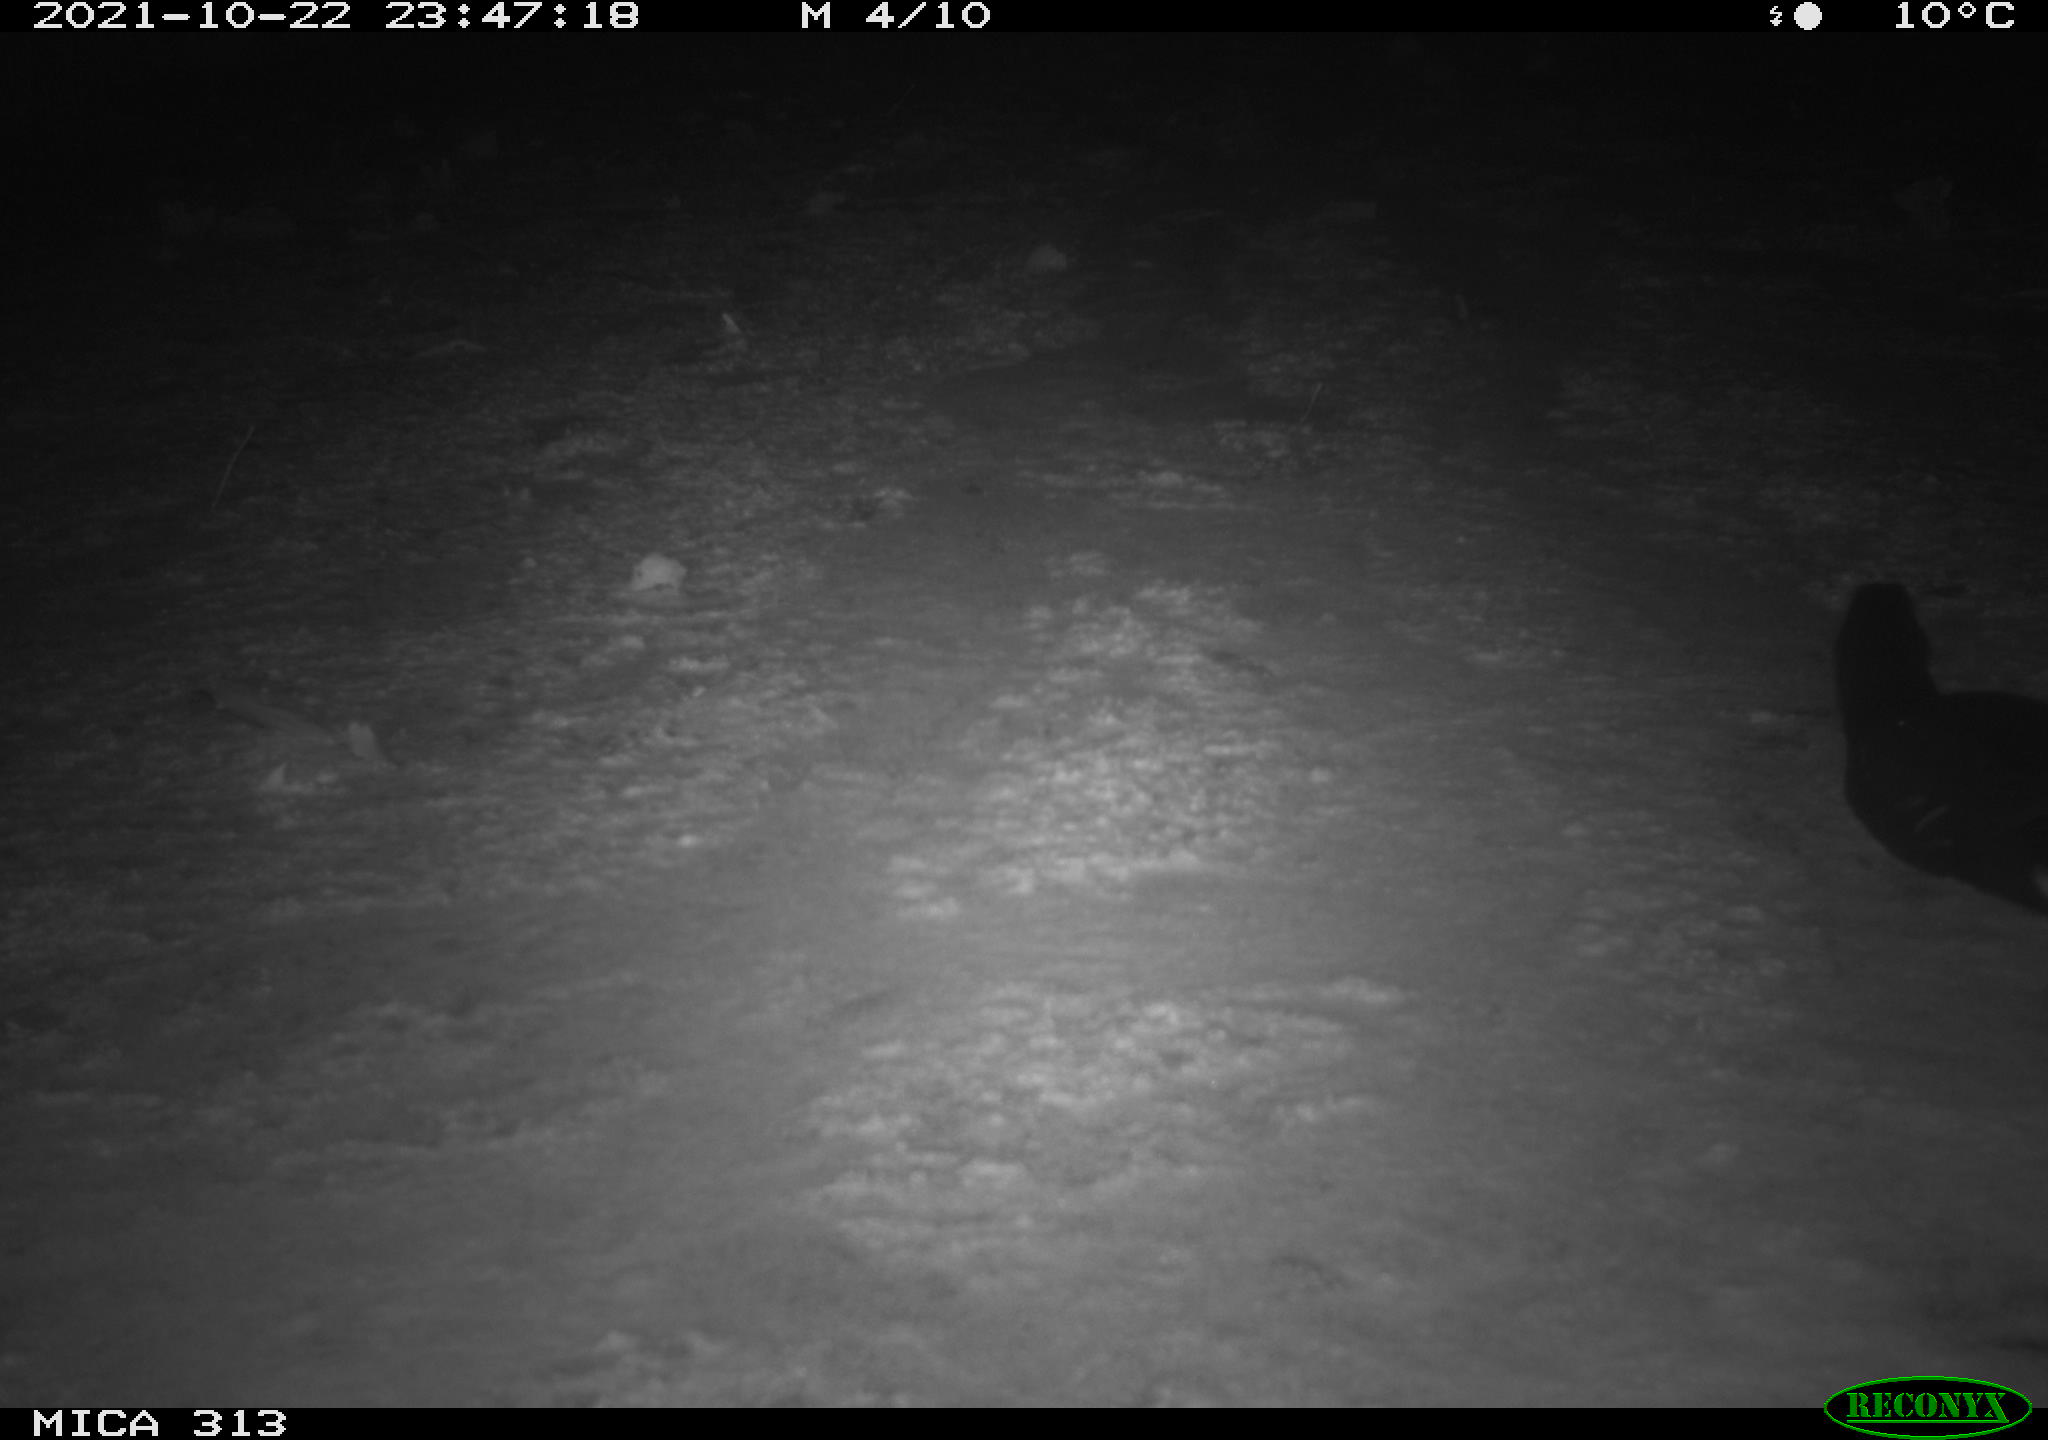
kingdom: Animalia
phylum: Chordata
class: Aves
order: Gruiformes
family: Rallidae
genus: Gallinula
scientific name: Gallinula chloropus
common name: Common moorhen
